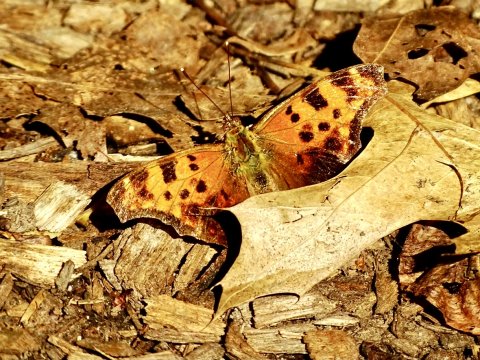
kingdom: Animalia
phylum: Arthropoda
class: Insecta
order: Lepidoptera
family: Nymphalidae
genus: Polygonia
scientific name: Polygonia comma
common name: Eastern Comma
